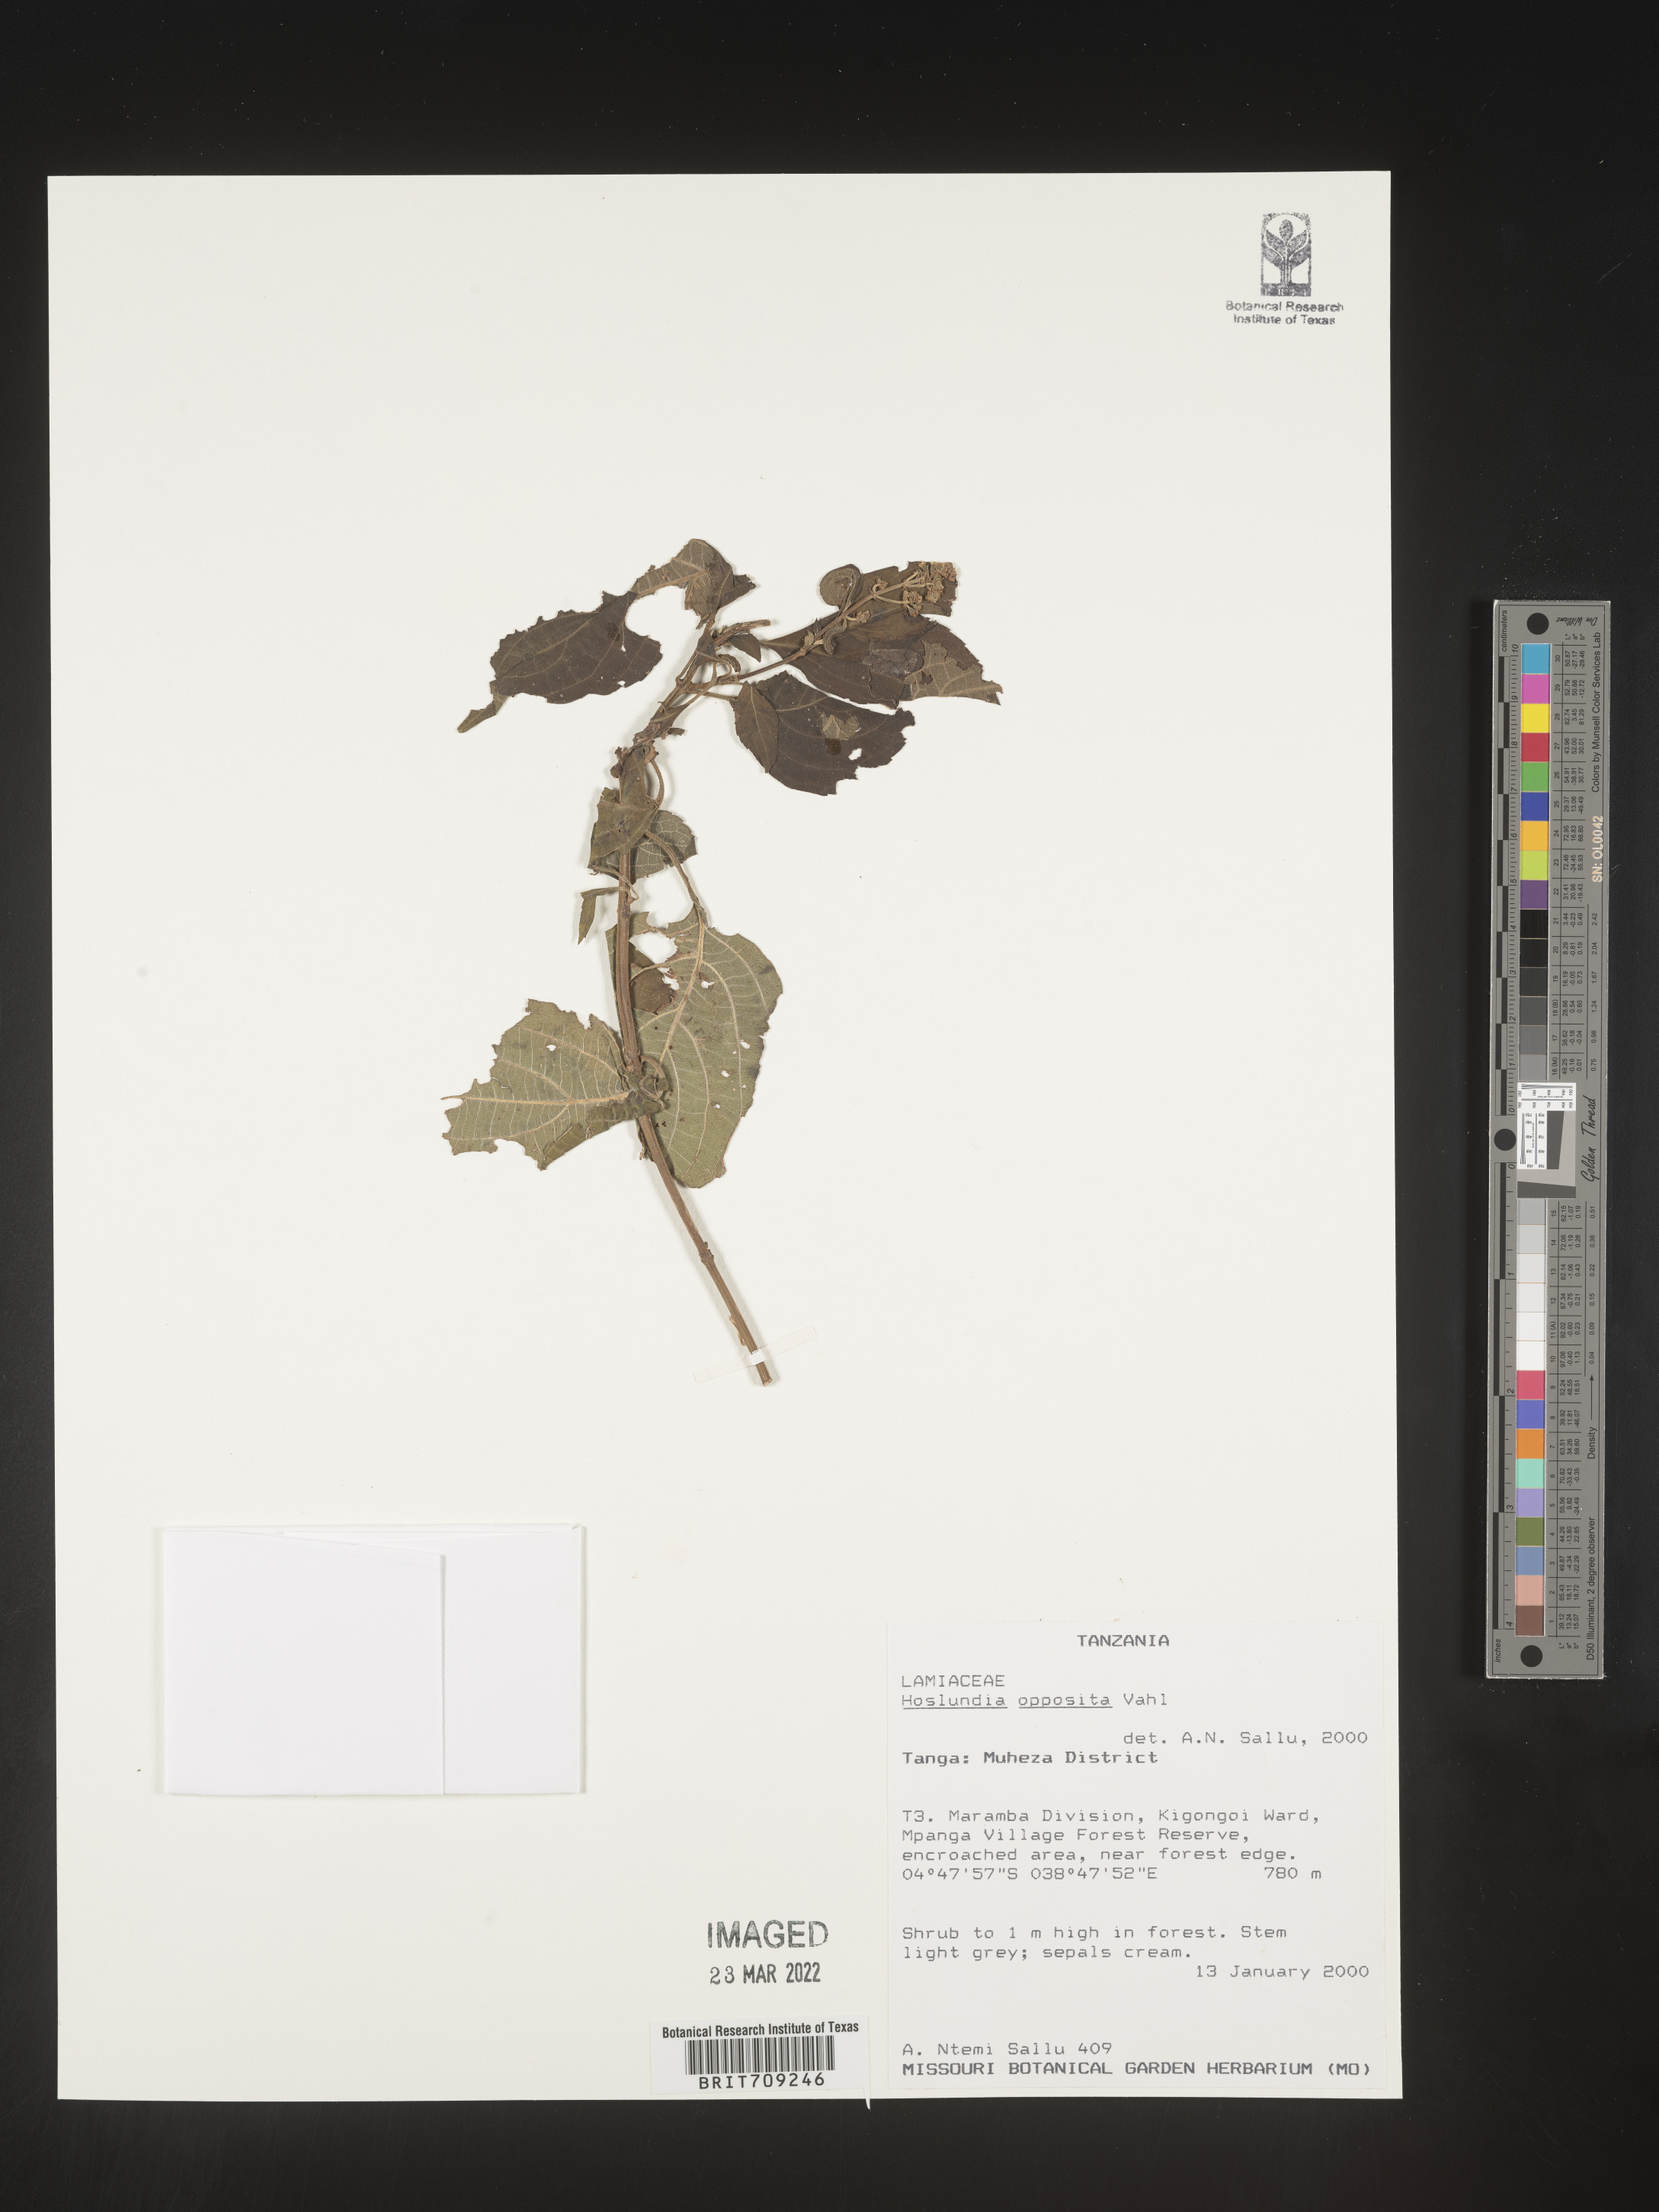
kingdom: Plantae
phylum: Tracheophyta
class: Magnoliopsida
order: Lamiales
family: Lamiaceae
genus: Hoslundia
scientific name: Hoslundia opposita
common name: Kamyuye
